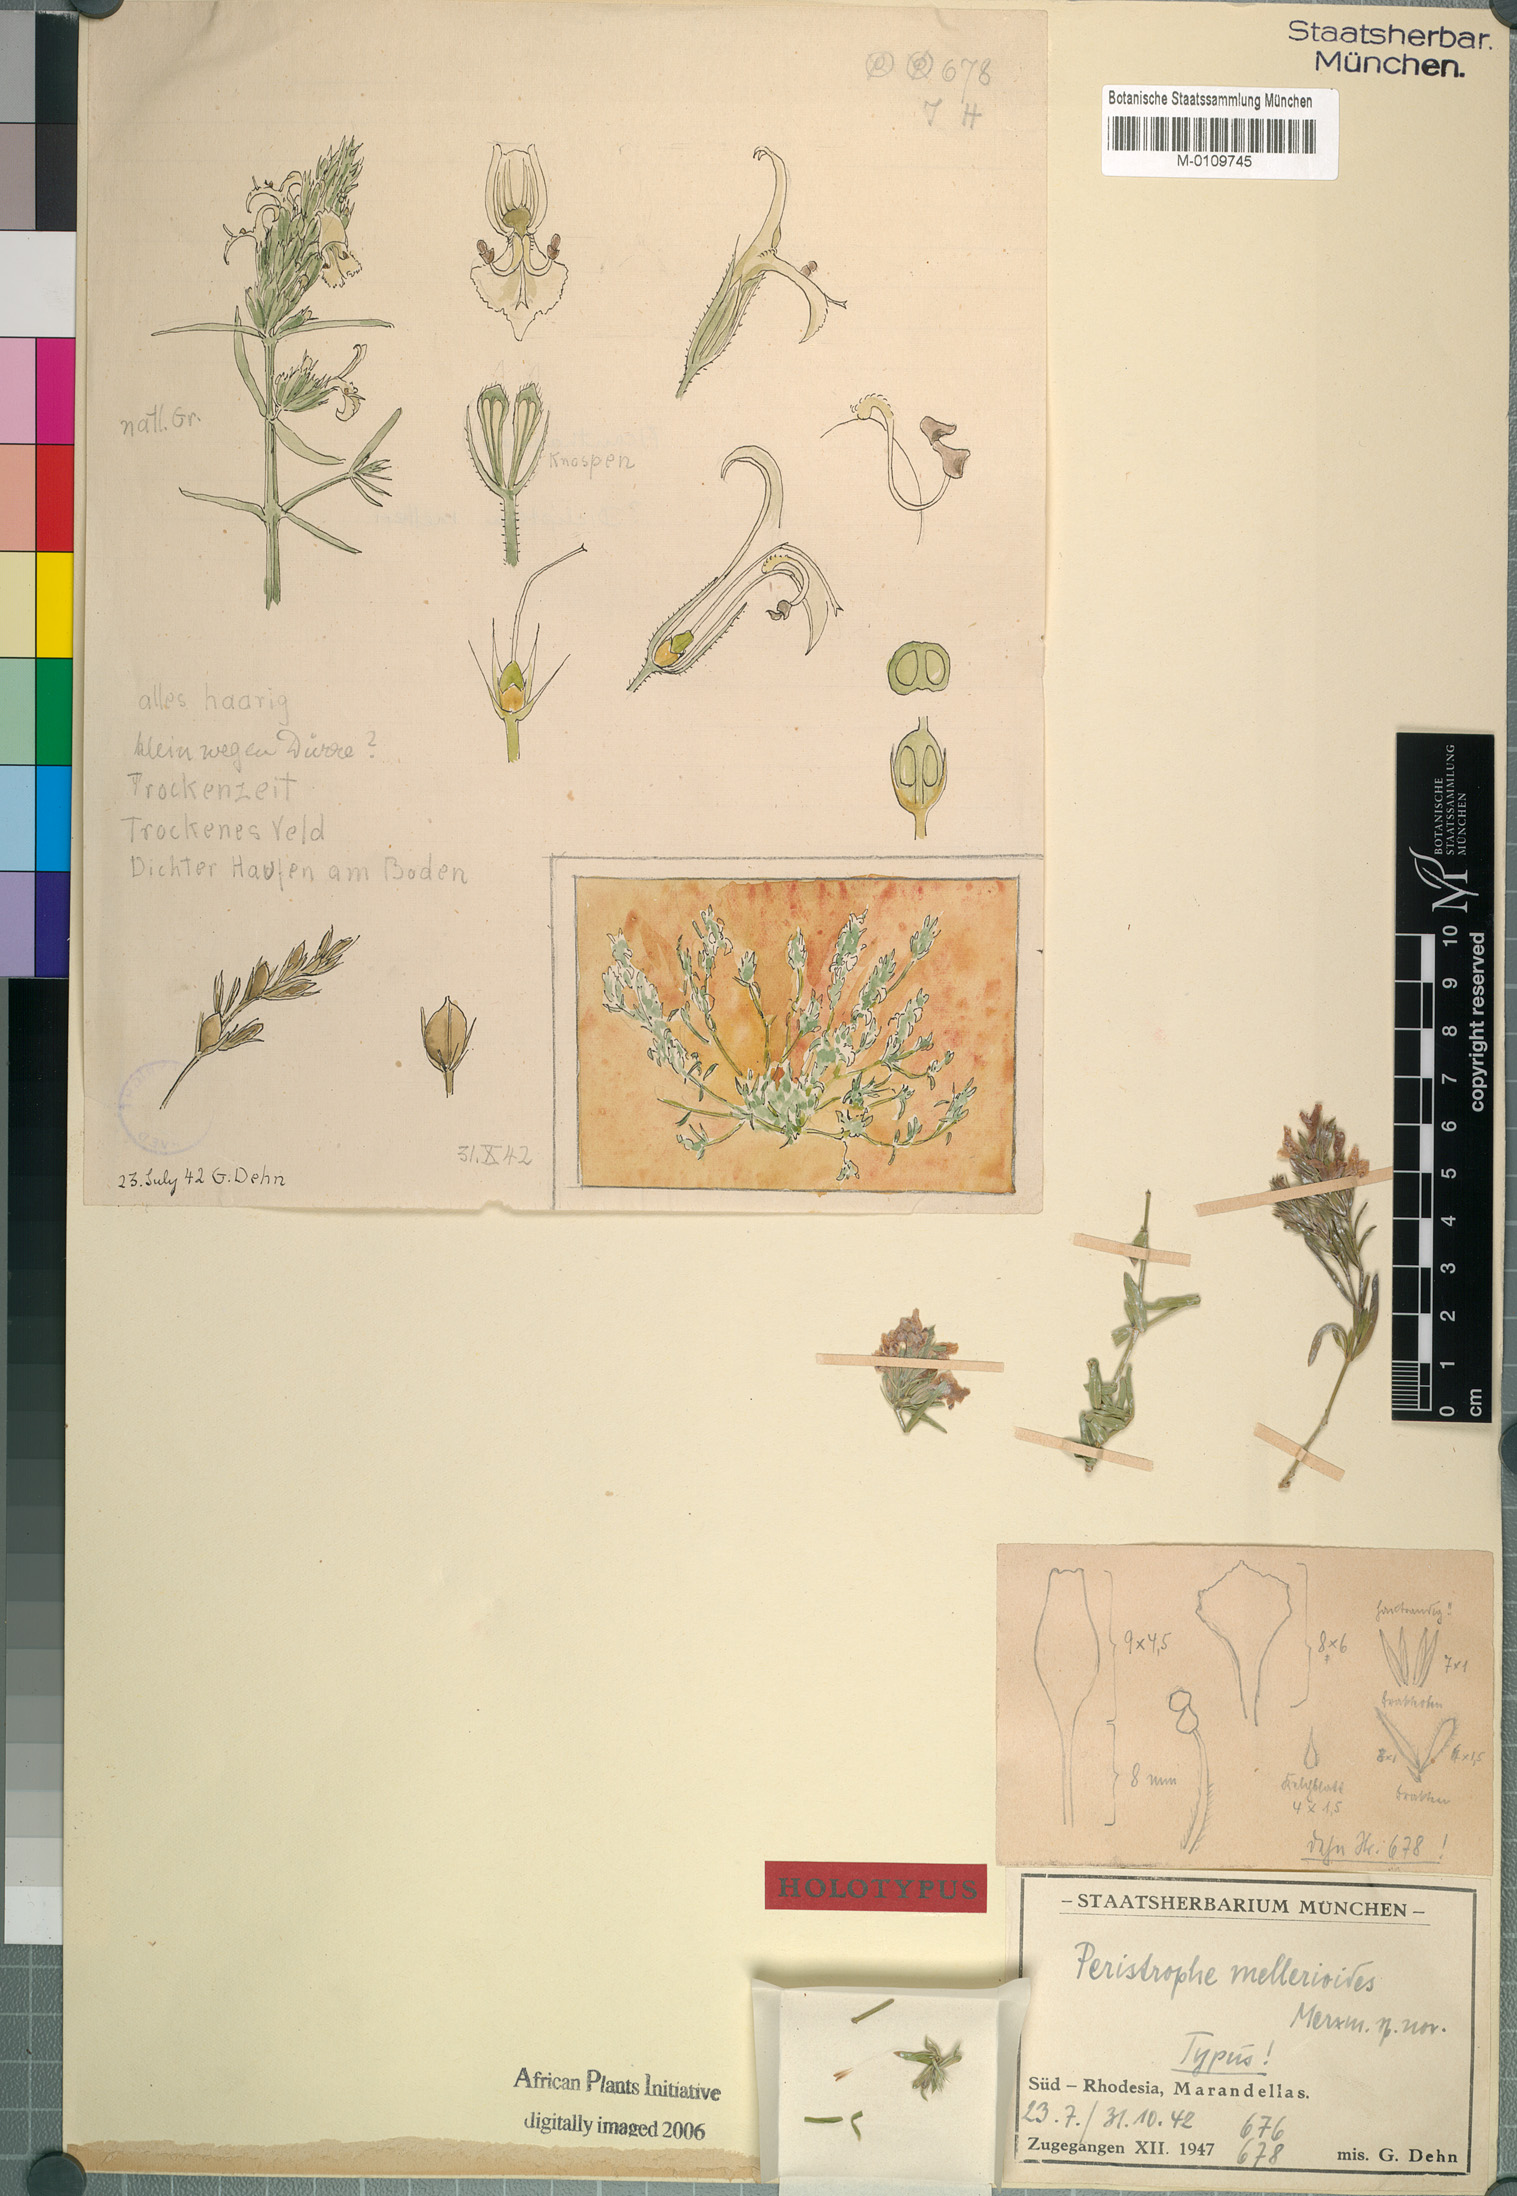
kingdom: Plantae
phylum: Tracheophyta
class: Magnoliopsida
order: Lamiales
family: Acanthaceae
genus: Dicliptera
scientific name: Dicliptera melleri
